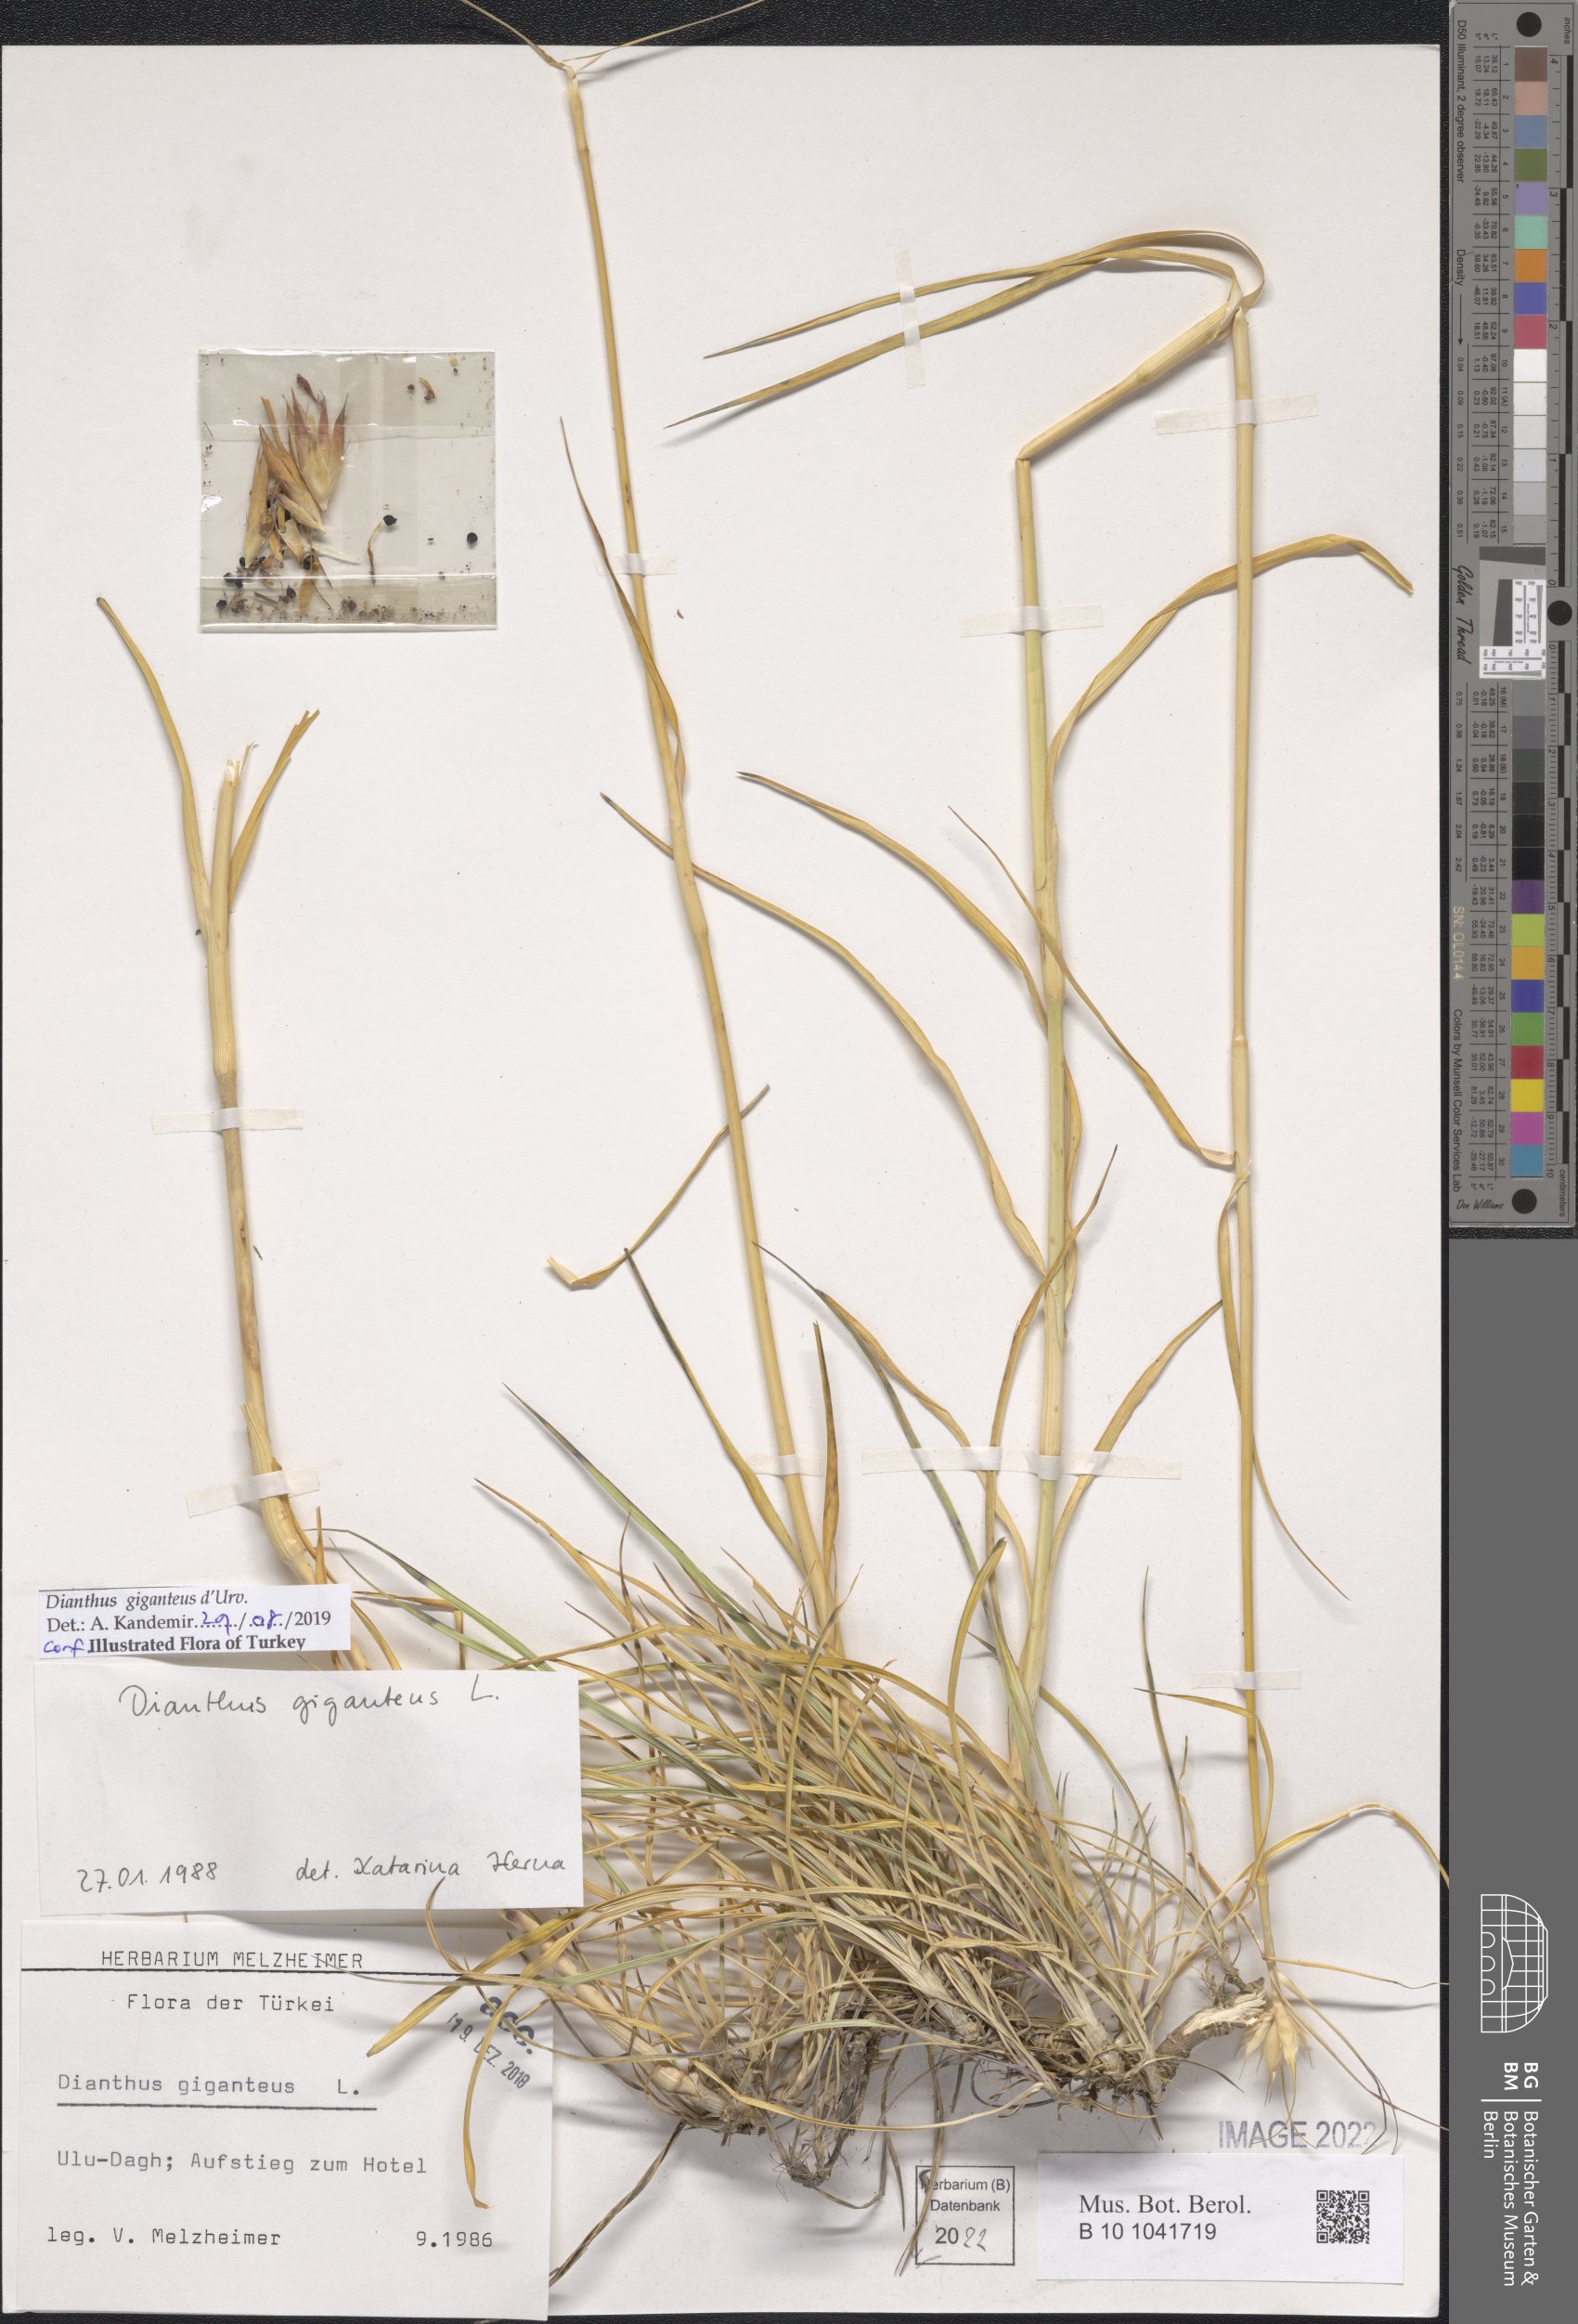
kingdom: Plantae
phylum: Tracheophyta
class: Magnoliopsida
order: Caryophyllales
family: Caryophyllaceae
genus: Dianthus
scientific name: Dianthus giganteus
